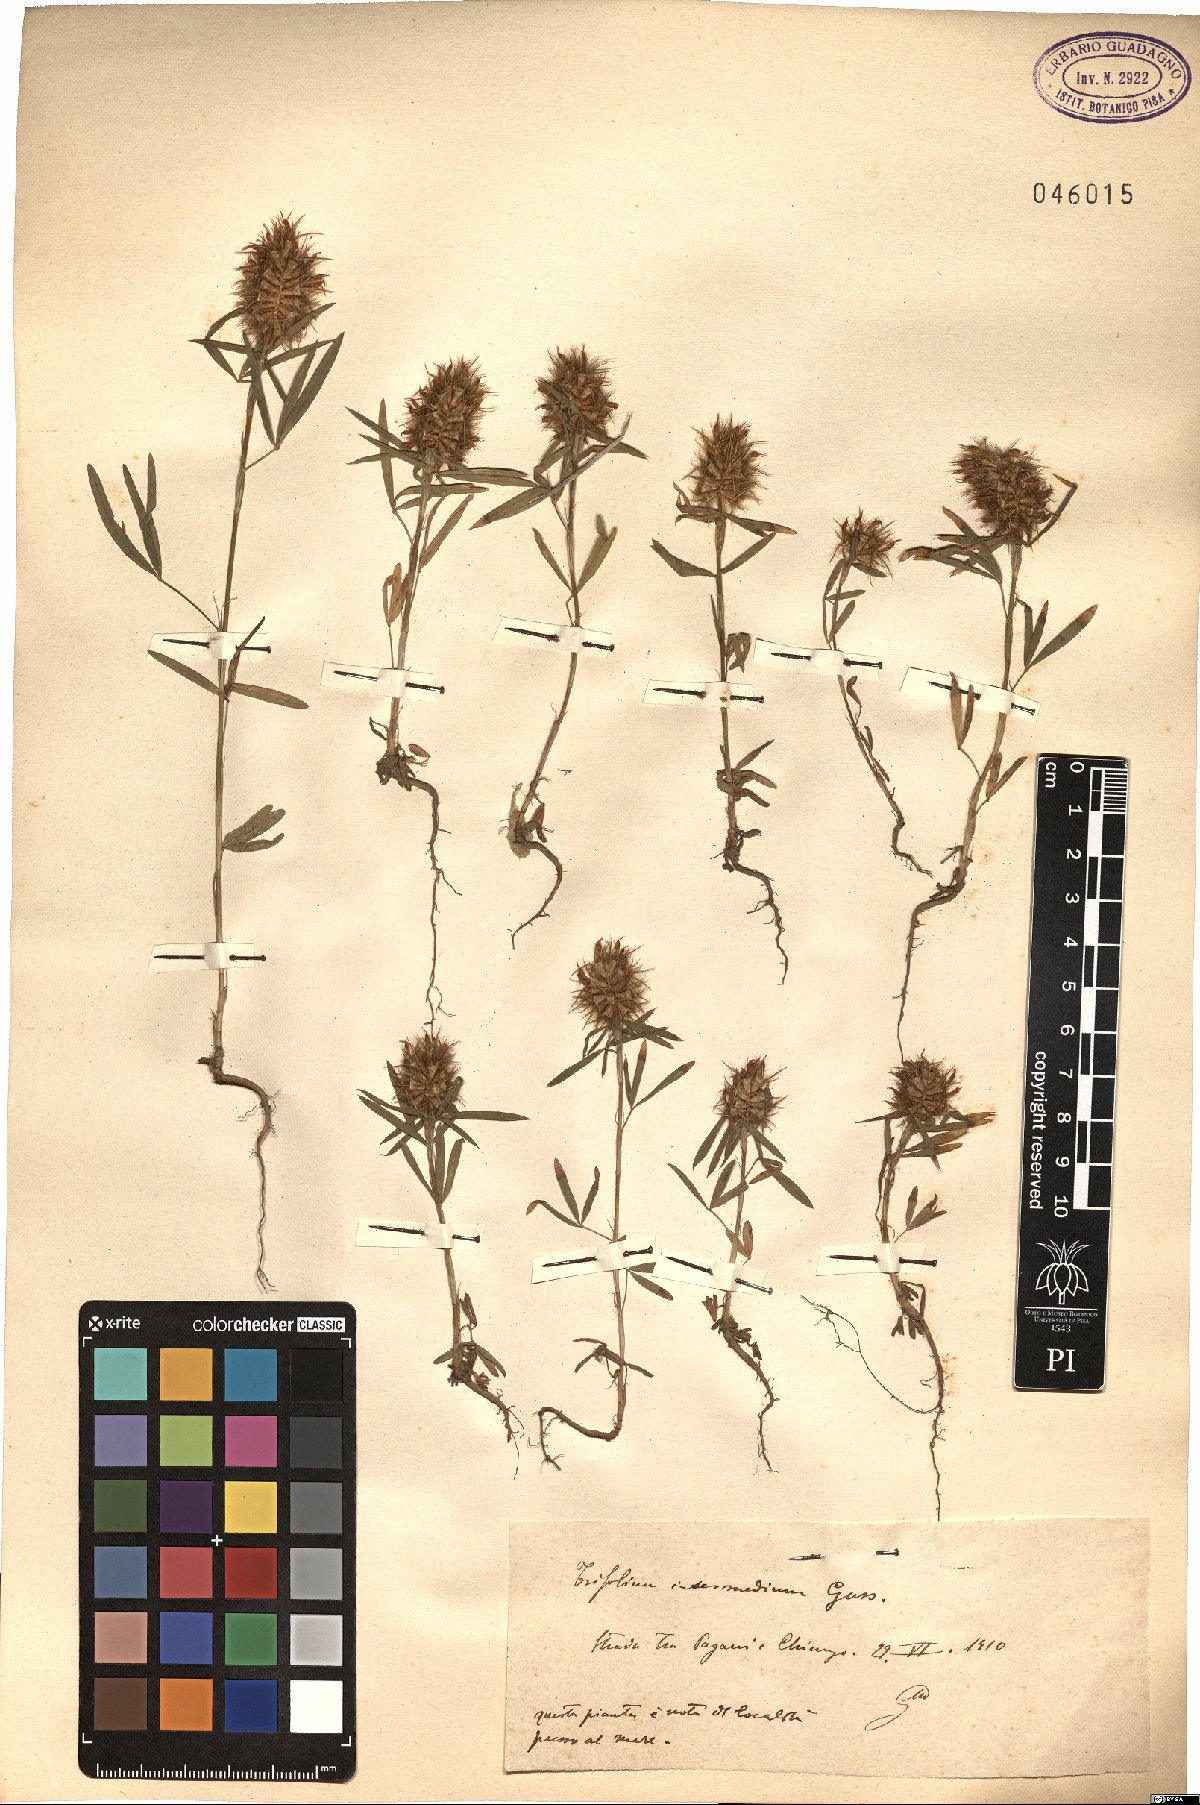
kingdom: Plantae
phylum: Tracheophyta
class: Magnoliopsida
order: Fabales
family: Fabaceae
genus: Trifolium
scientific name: Trifolium infamia-ponertii
